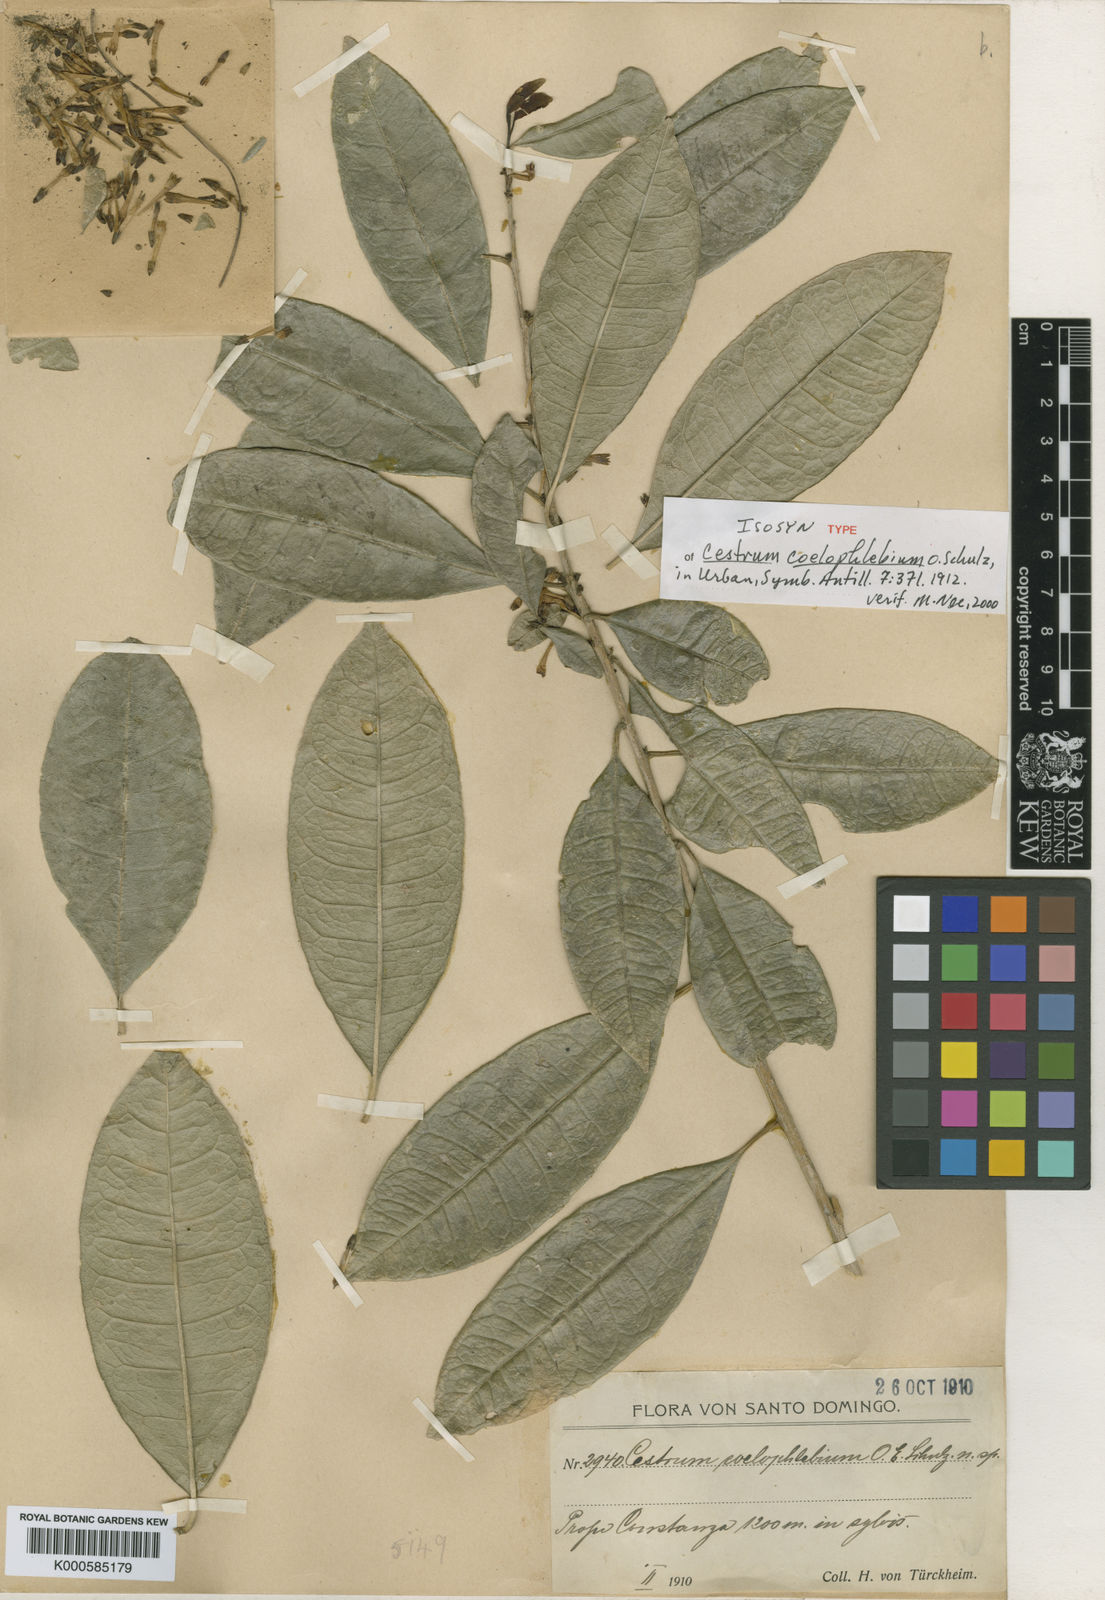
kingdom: Plantae
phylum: Tracheophyta
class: Magnoliopsida
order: Solanales
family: Solanaceae
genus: Cestrum
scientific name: Cestrum coelophlebium
